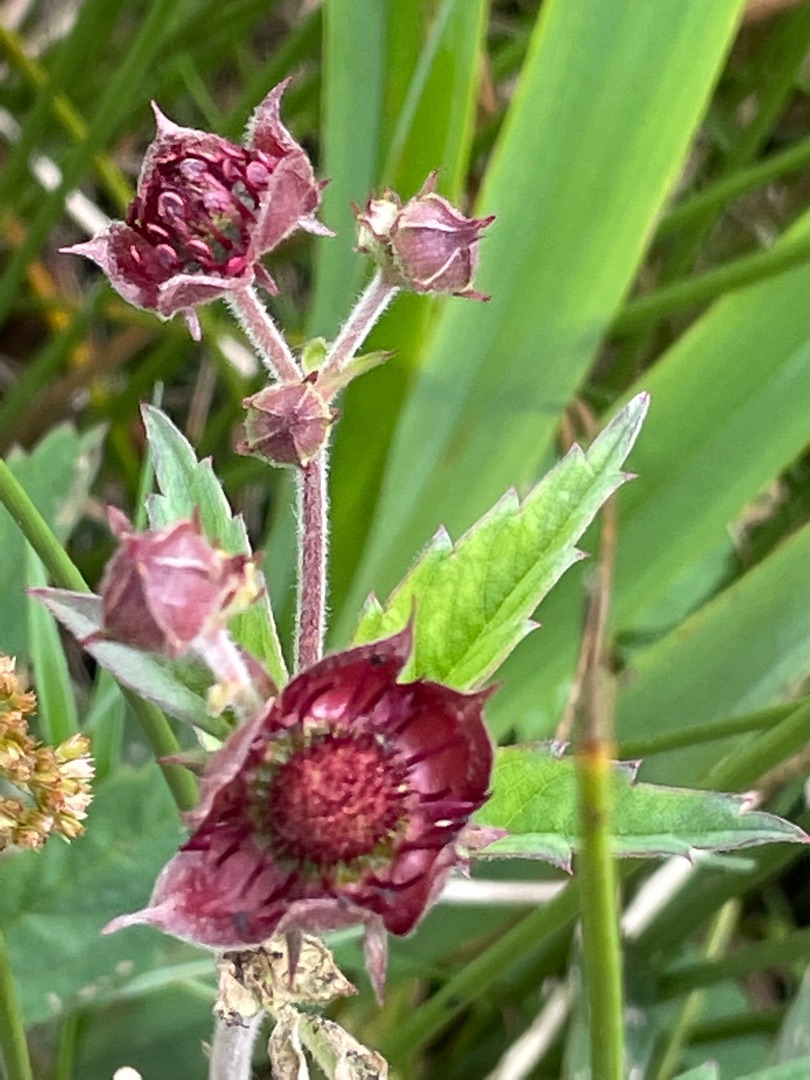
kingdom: Plantae
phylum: Tracheophyta
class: Magnoliopsida
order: Rosales
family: Rosaceae
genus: Comarum
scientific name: Comarum palustre
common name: Kragefod
